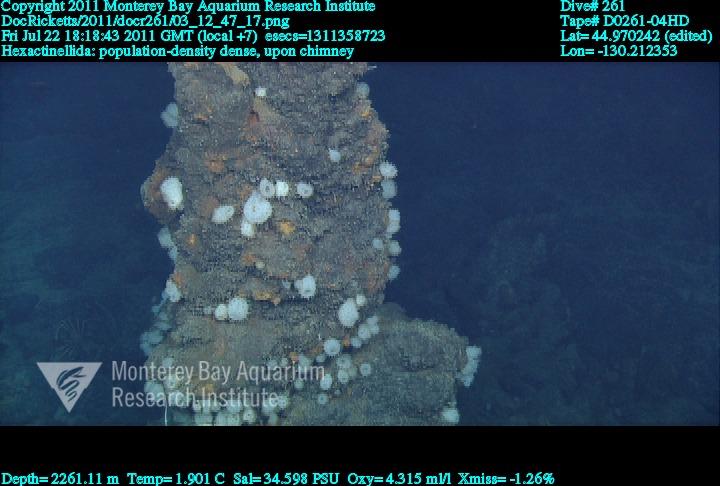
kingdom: Animalia
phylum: Porifera
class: Hexactinellida
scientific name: Hexactinellida
